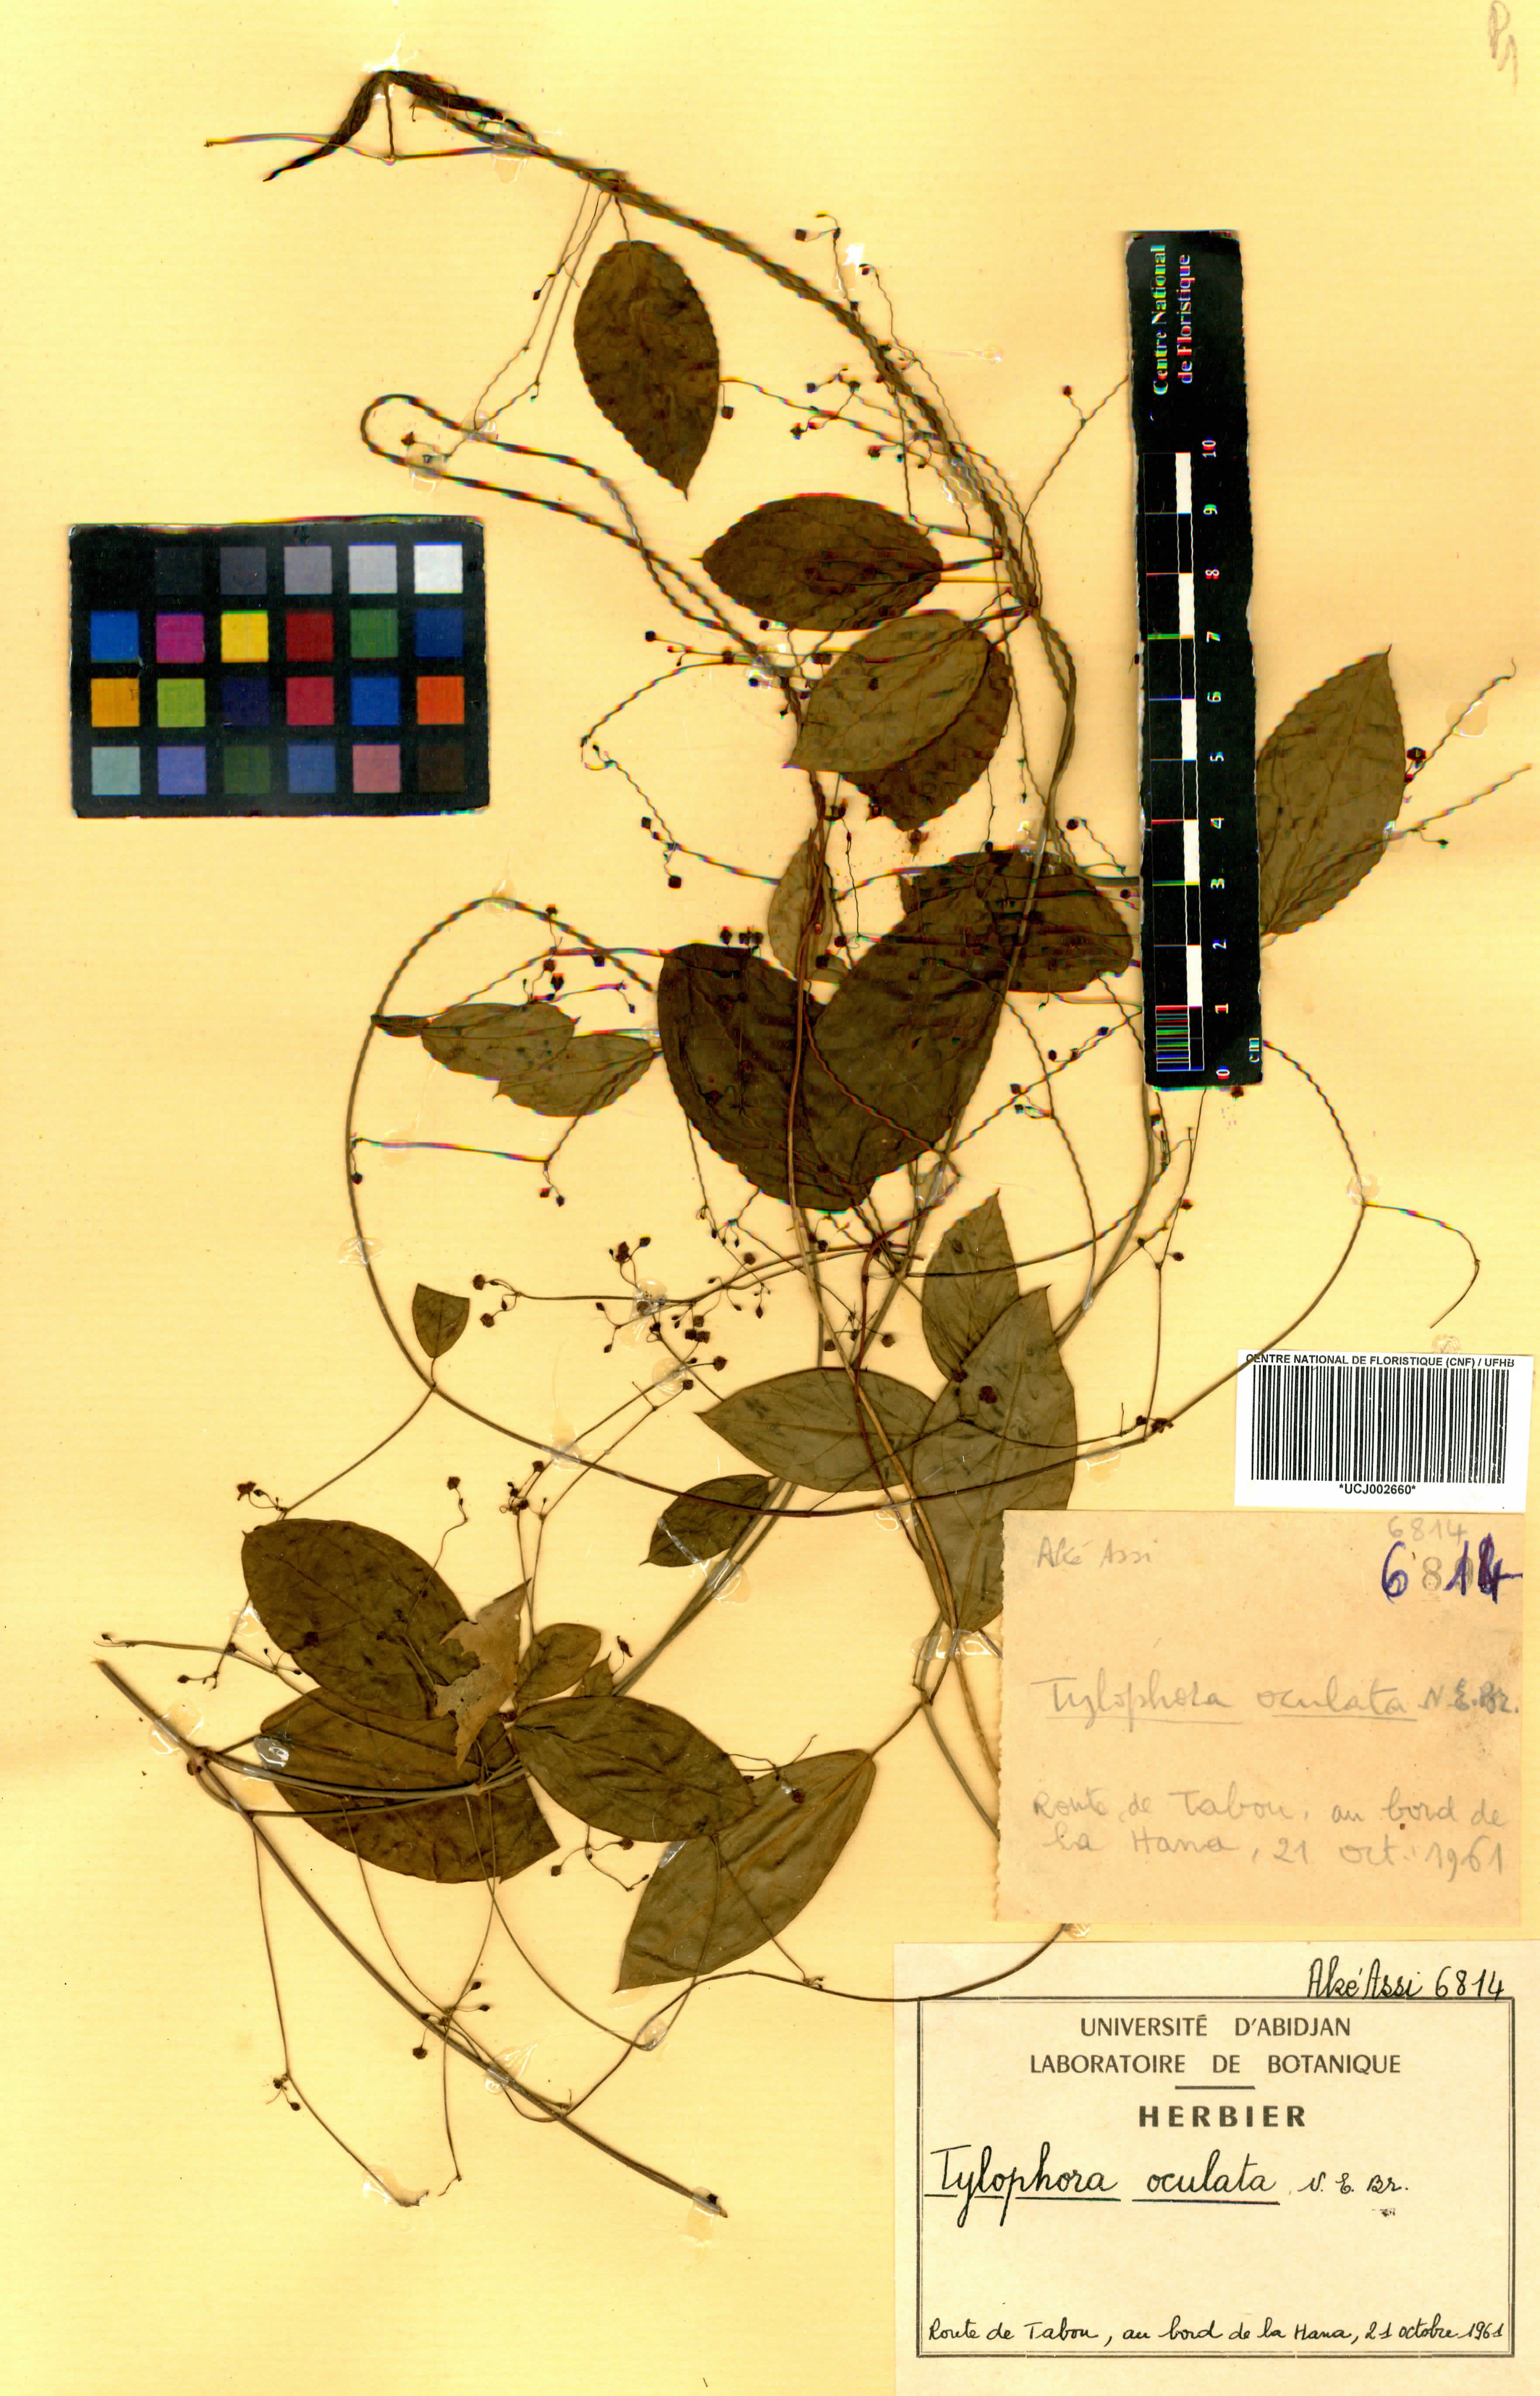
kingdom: Plantae
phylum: Tracheophyta
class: Magnoliopsida
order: Gentianales
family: Apocynaceae
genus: Vincetoxicum
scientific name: Vincetoxicum oculatum
